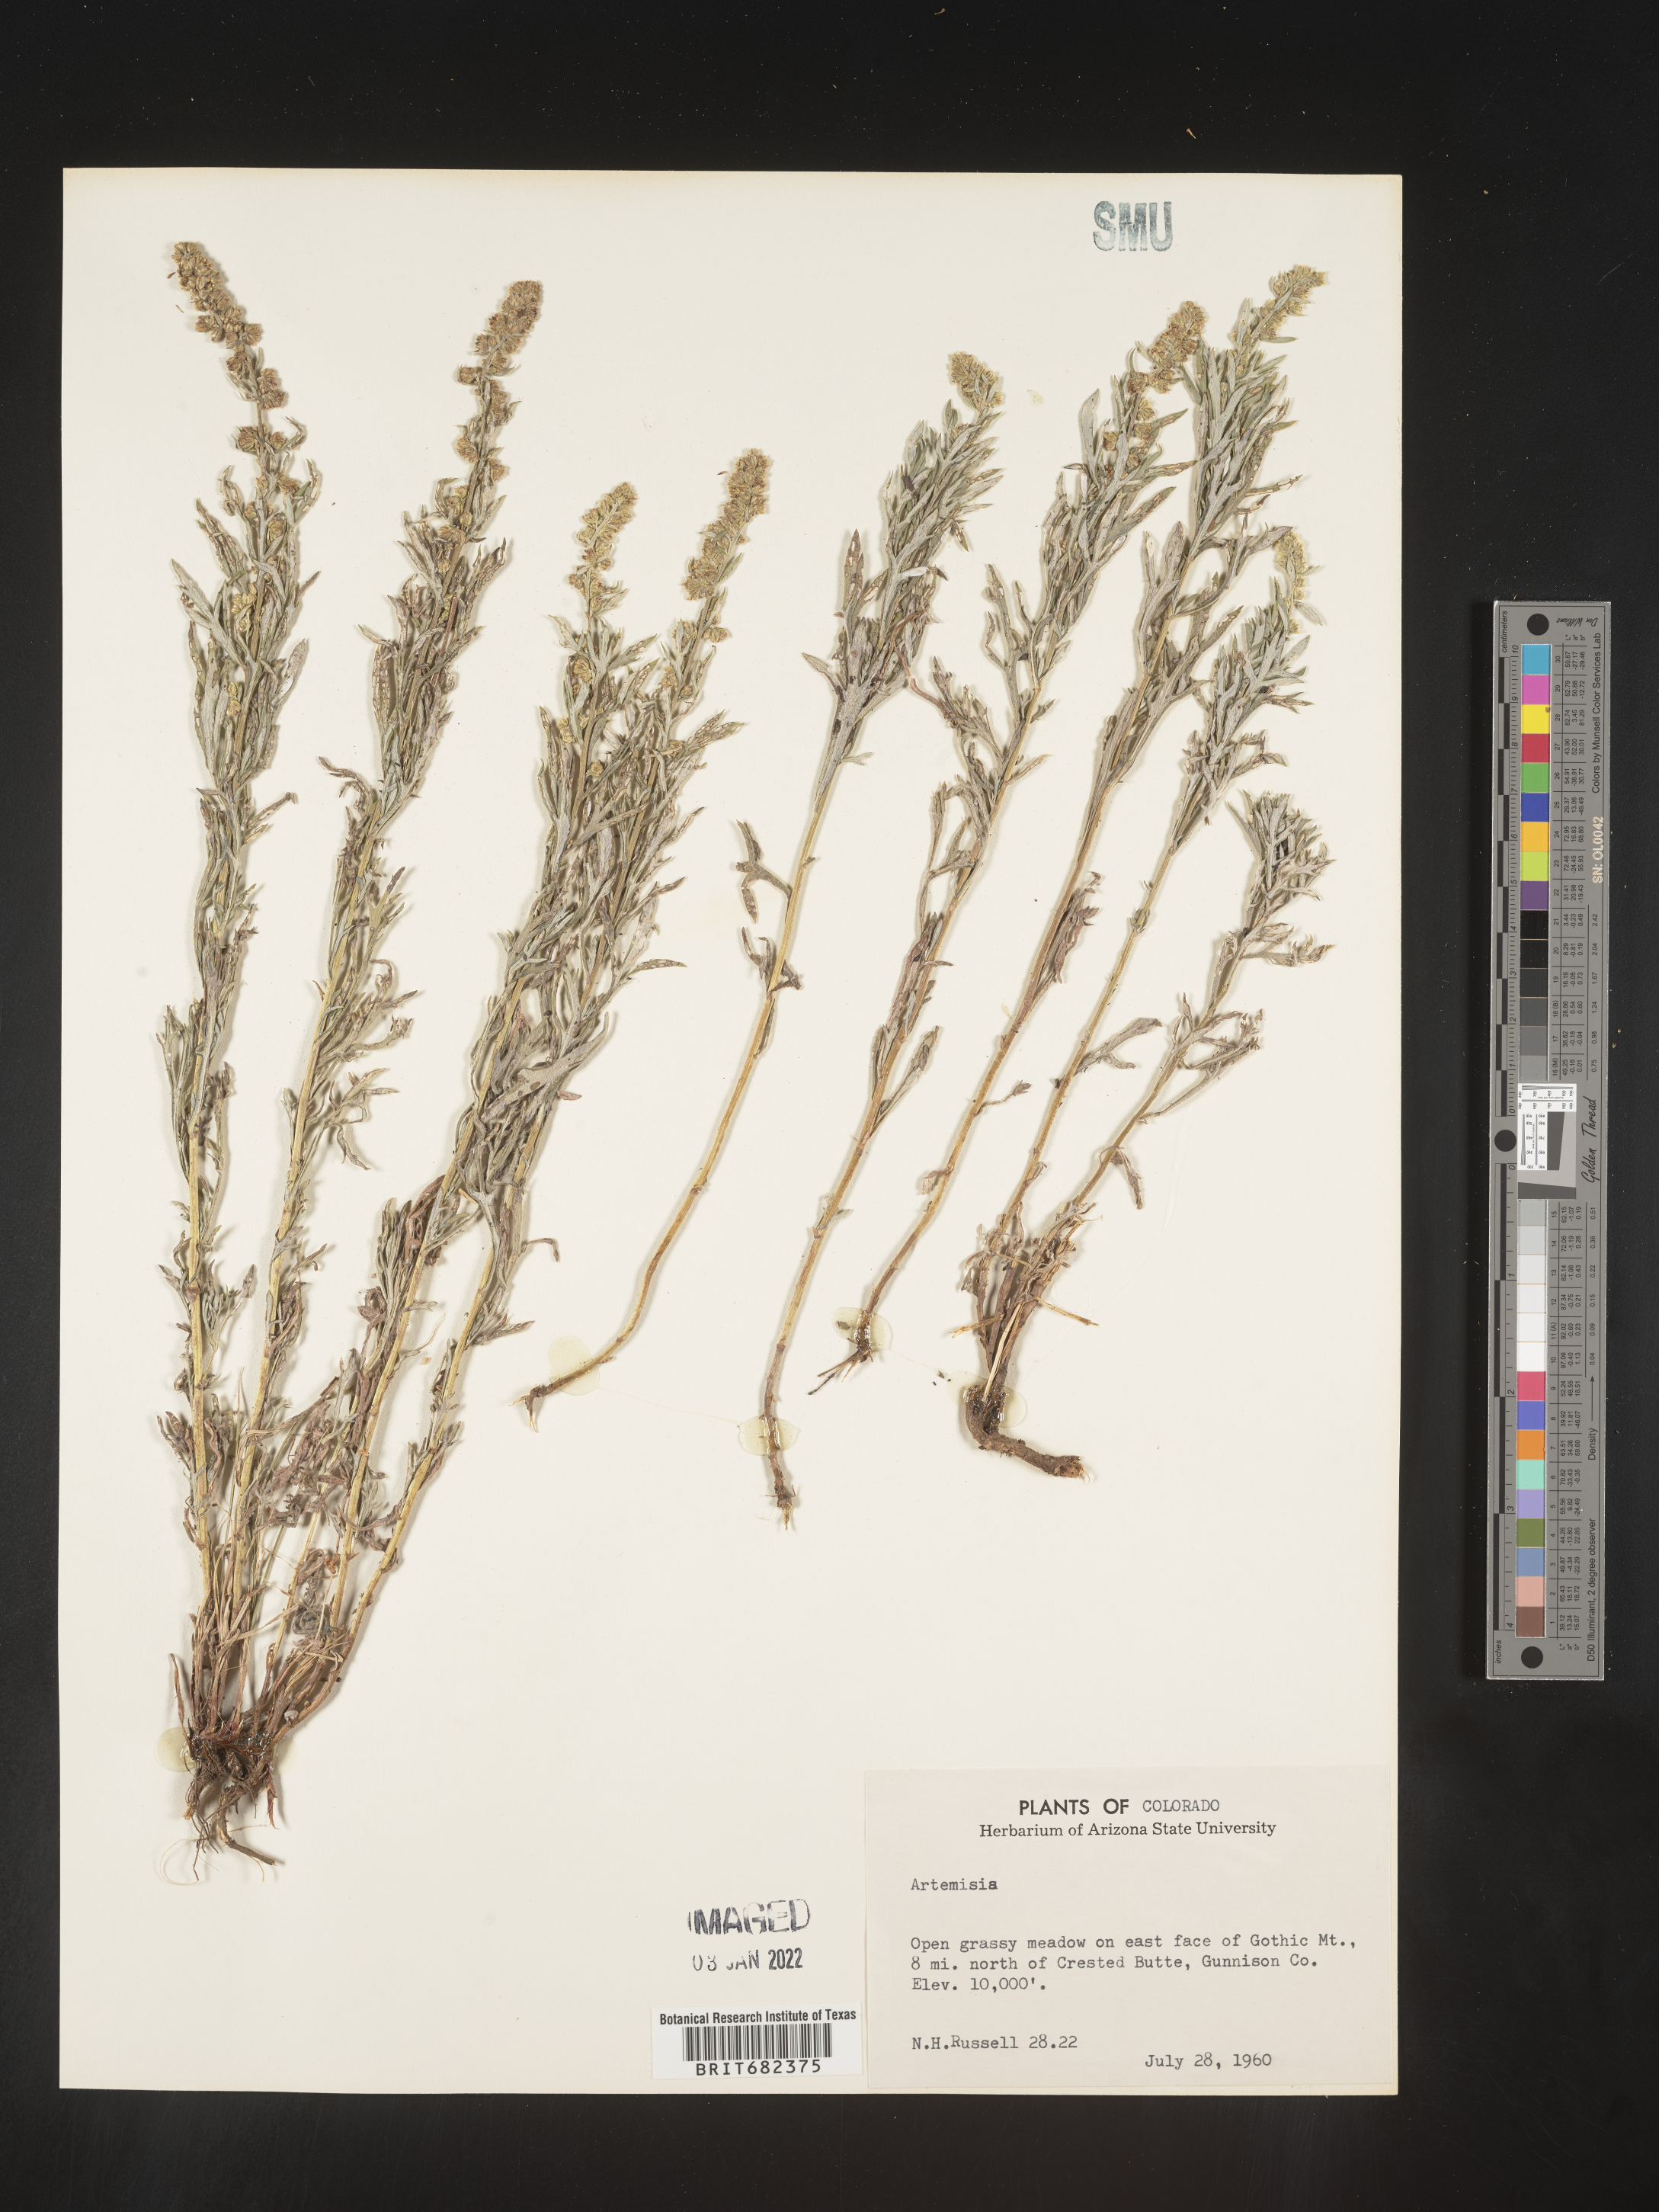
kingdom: Plantae
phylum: Tracheophyta
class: Magnoliopsida
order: Asterales
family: Asteraceae
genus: Artemisia
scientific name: Artemisia
